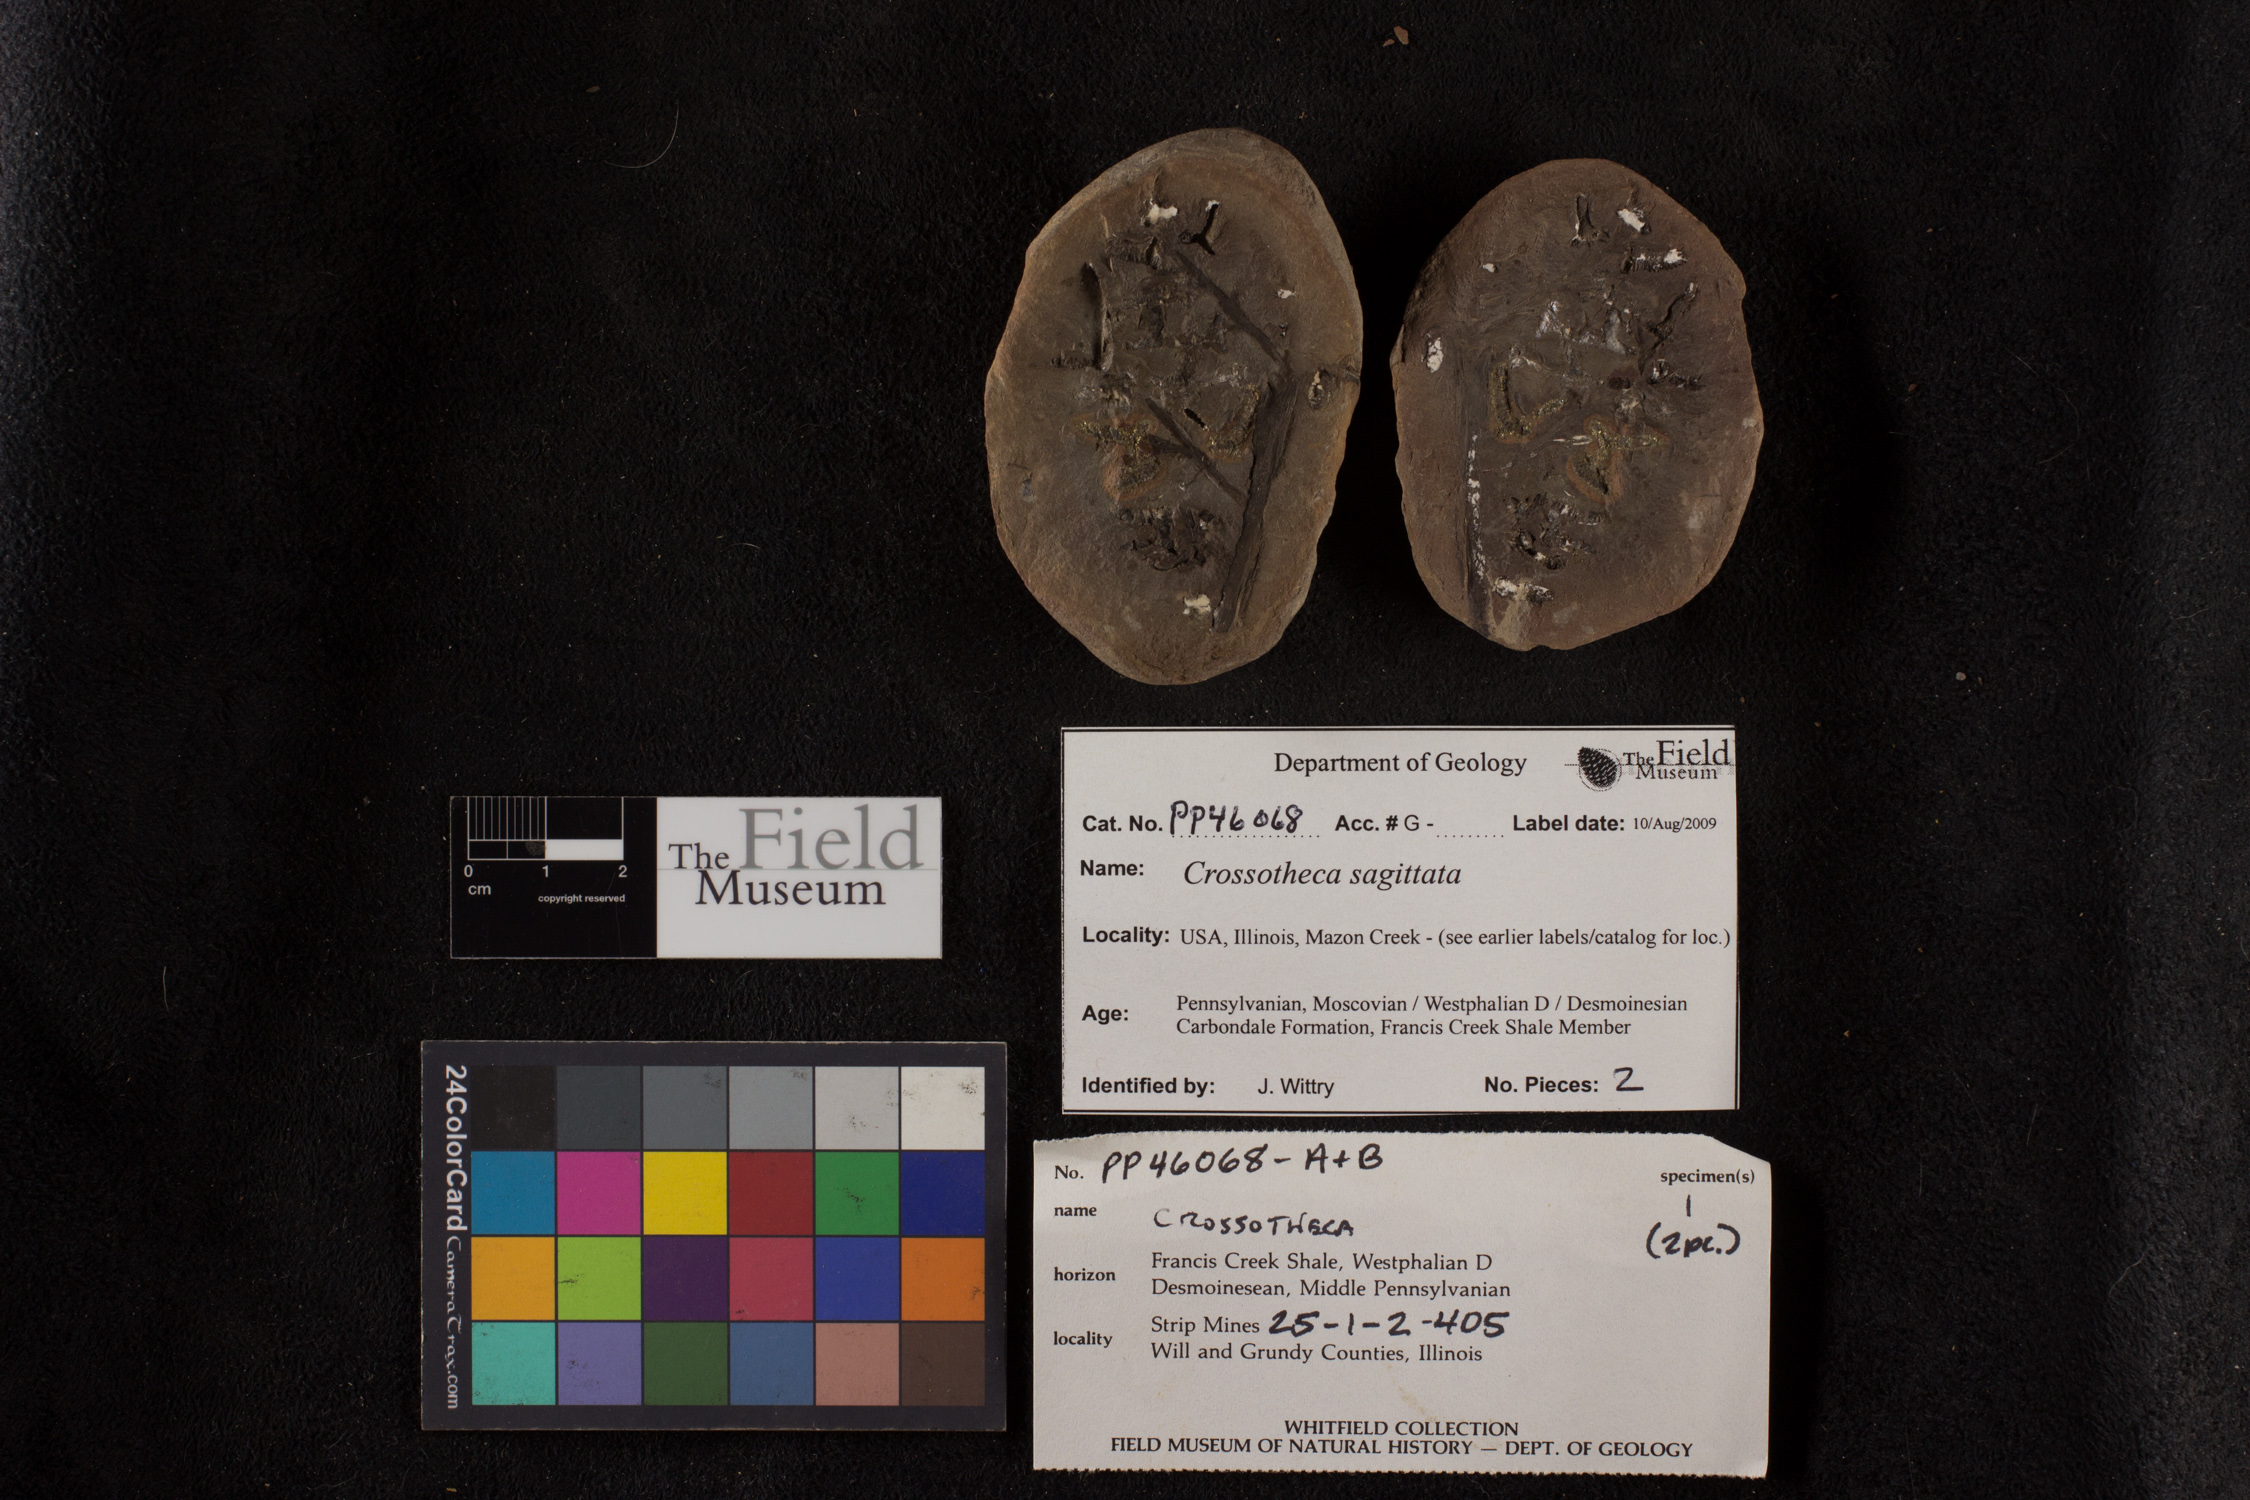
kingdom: Plantae
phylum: Tracheophyta
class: Polypodiopsida
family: Stauropteridaceae
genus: Crossotheca
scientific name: Crossotheca
